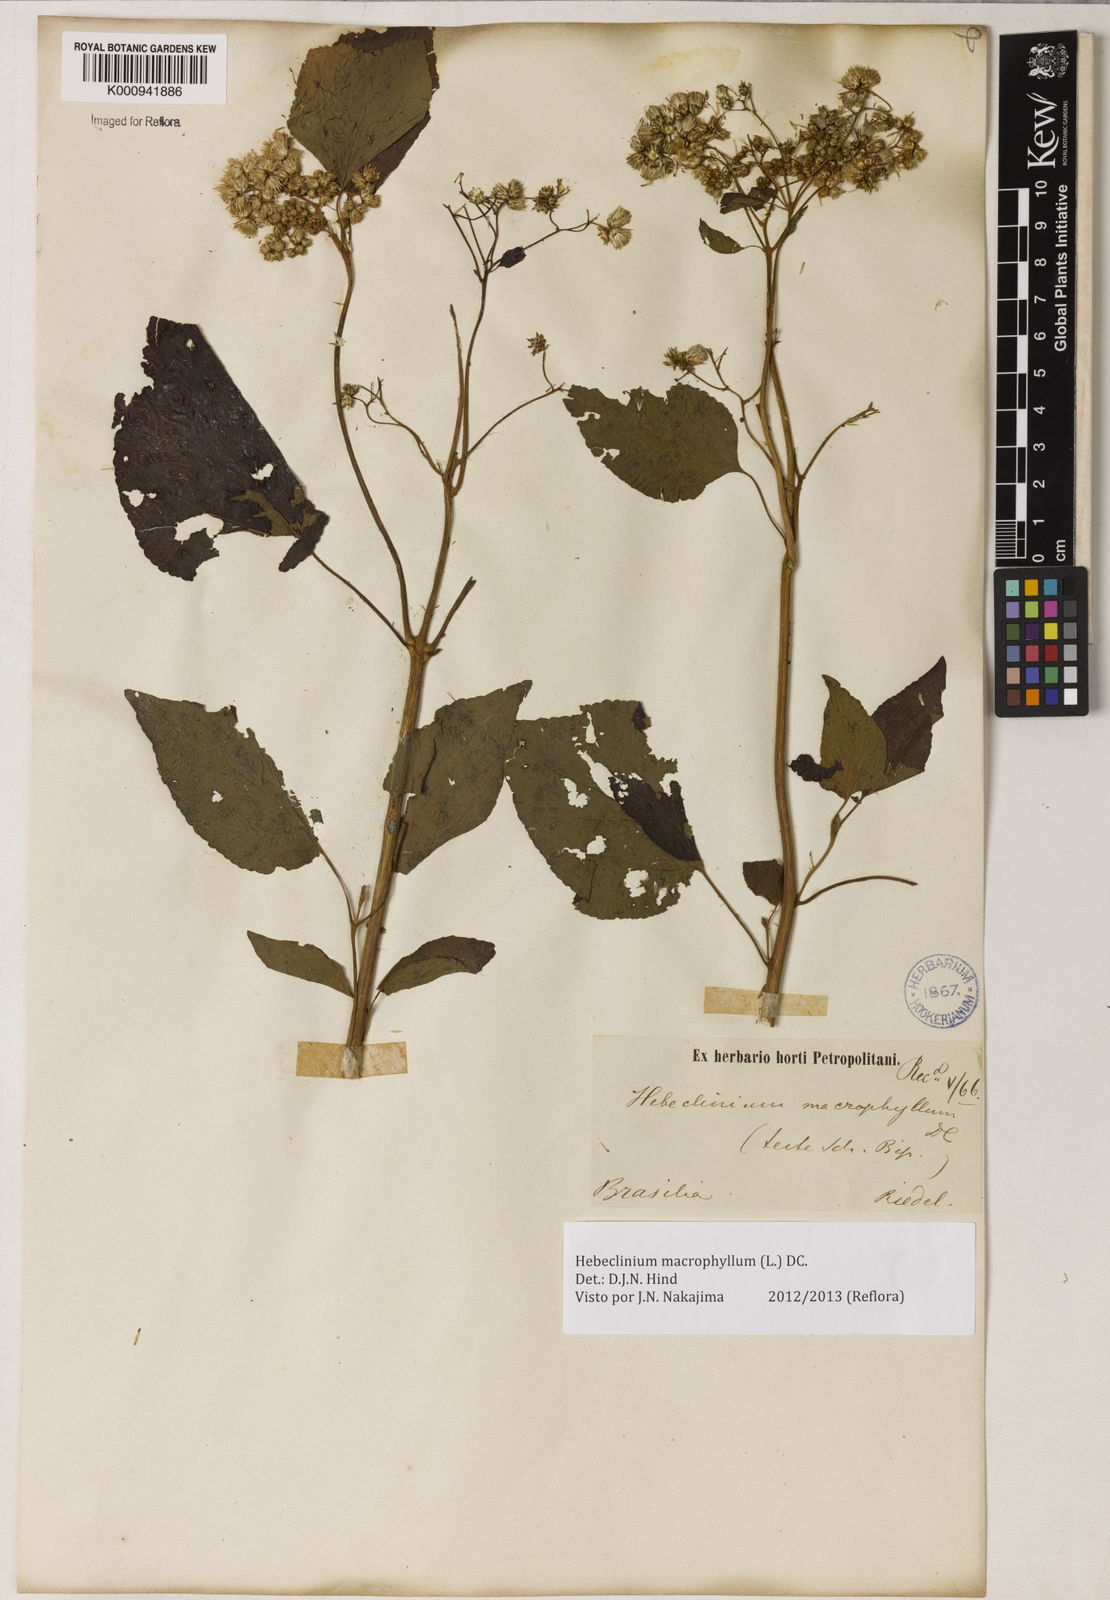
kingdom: Plantae
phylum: Tracheophyta
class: Magnoliopsida
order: Asterales
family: Asteraceae
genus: Hebeclinium
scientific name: Hebeclinium macrophyllum
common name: Largeleaf thoroughwort
